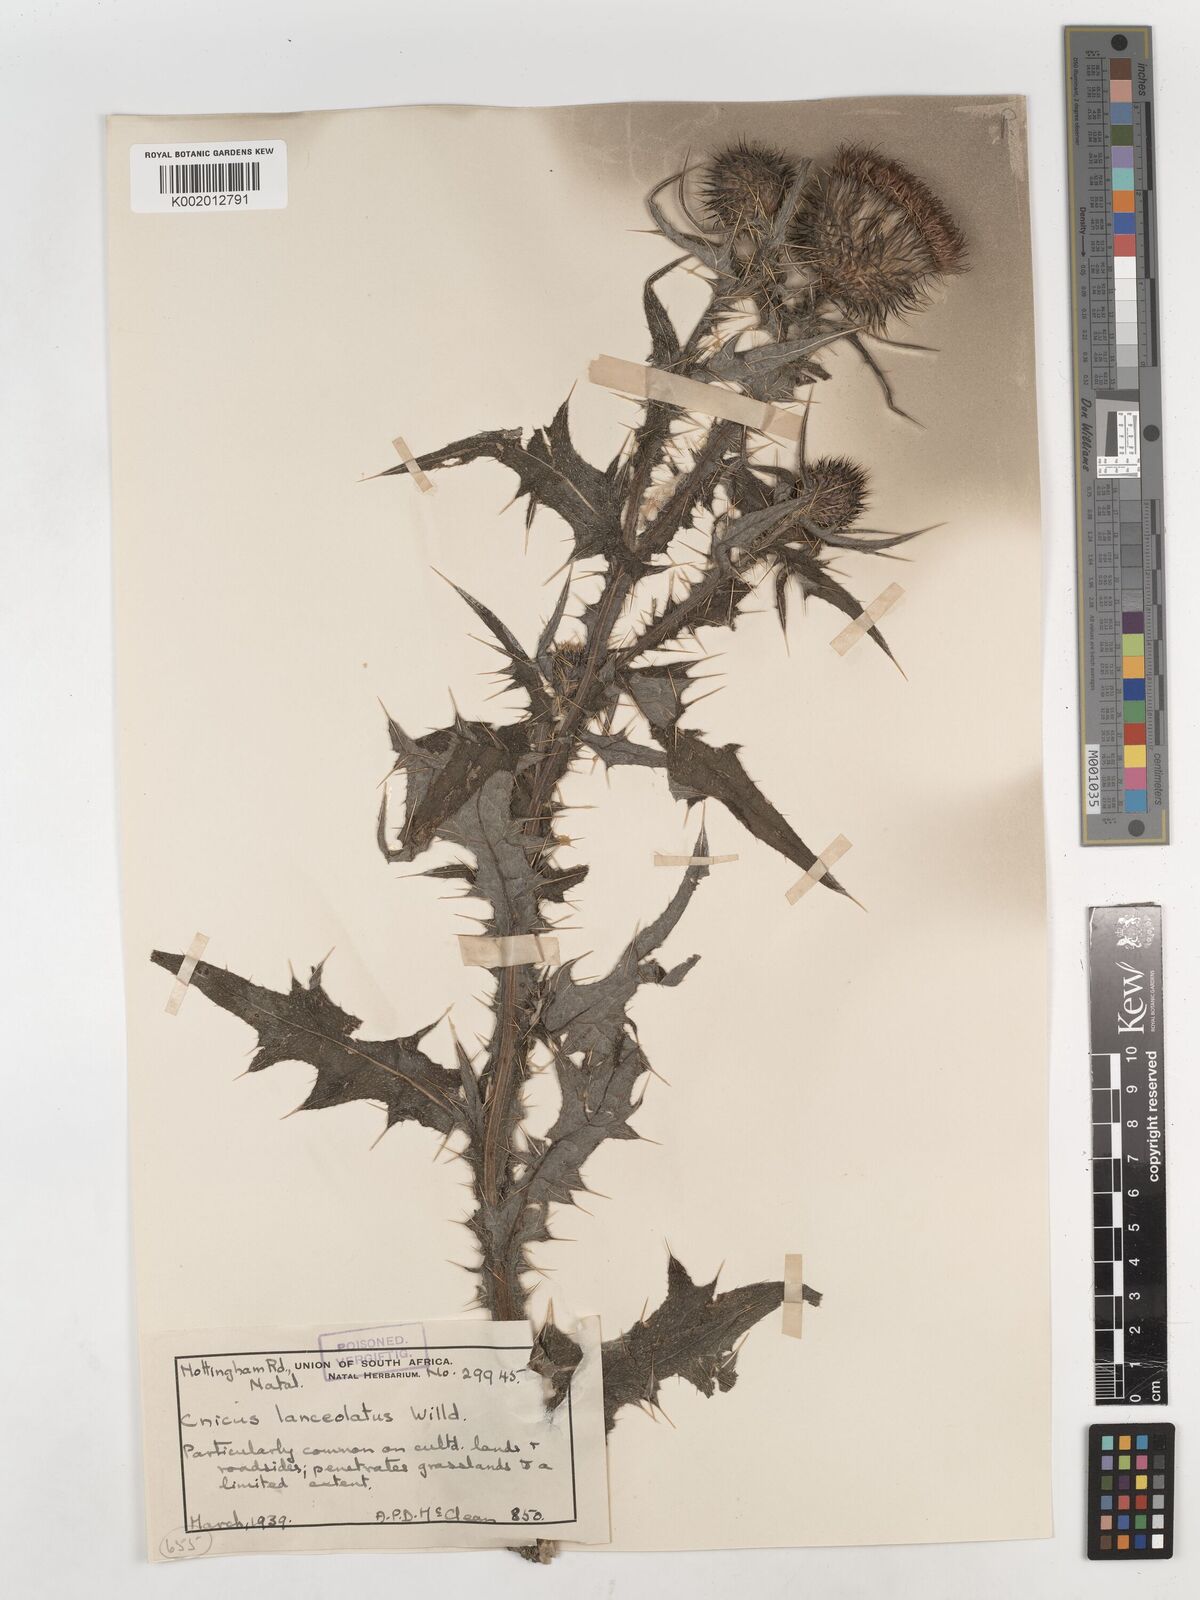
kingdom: Plantae
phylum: Tracheophyta
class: Magnoliopsida
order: Asterales
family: Asteraceae
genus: Cirsium
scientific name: Cirsium vulgare
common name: Bull thistle
